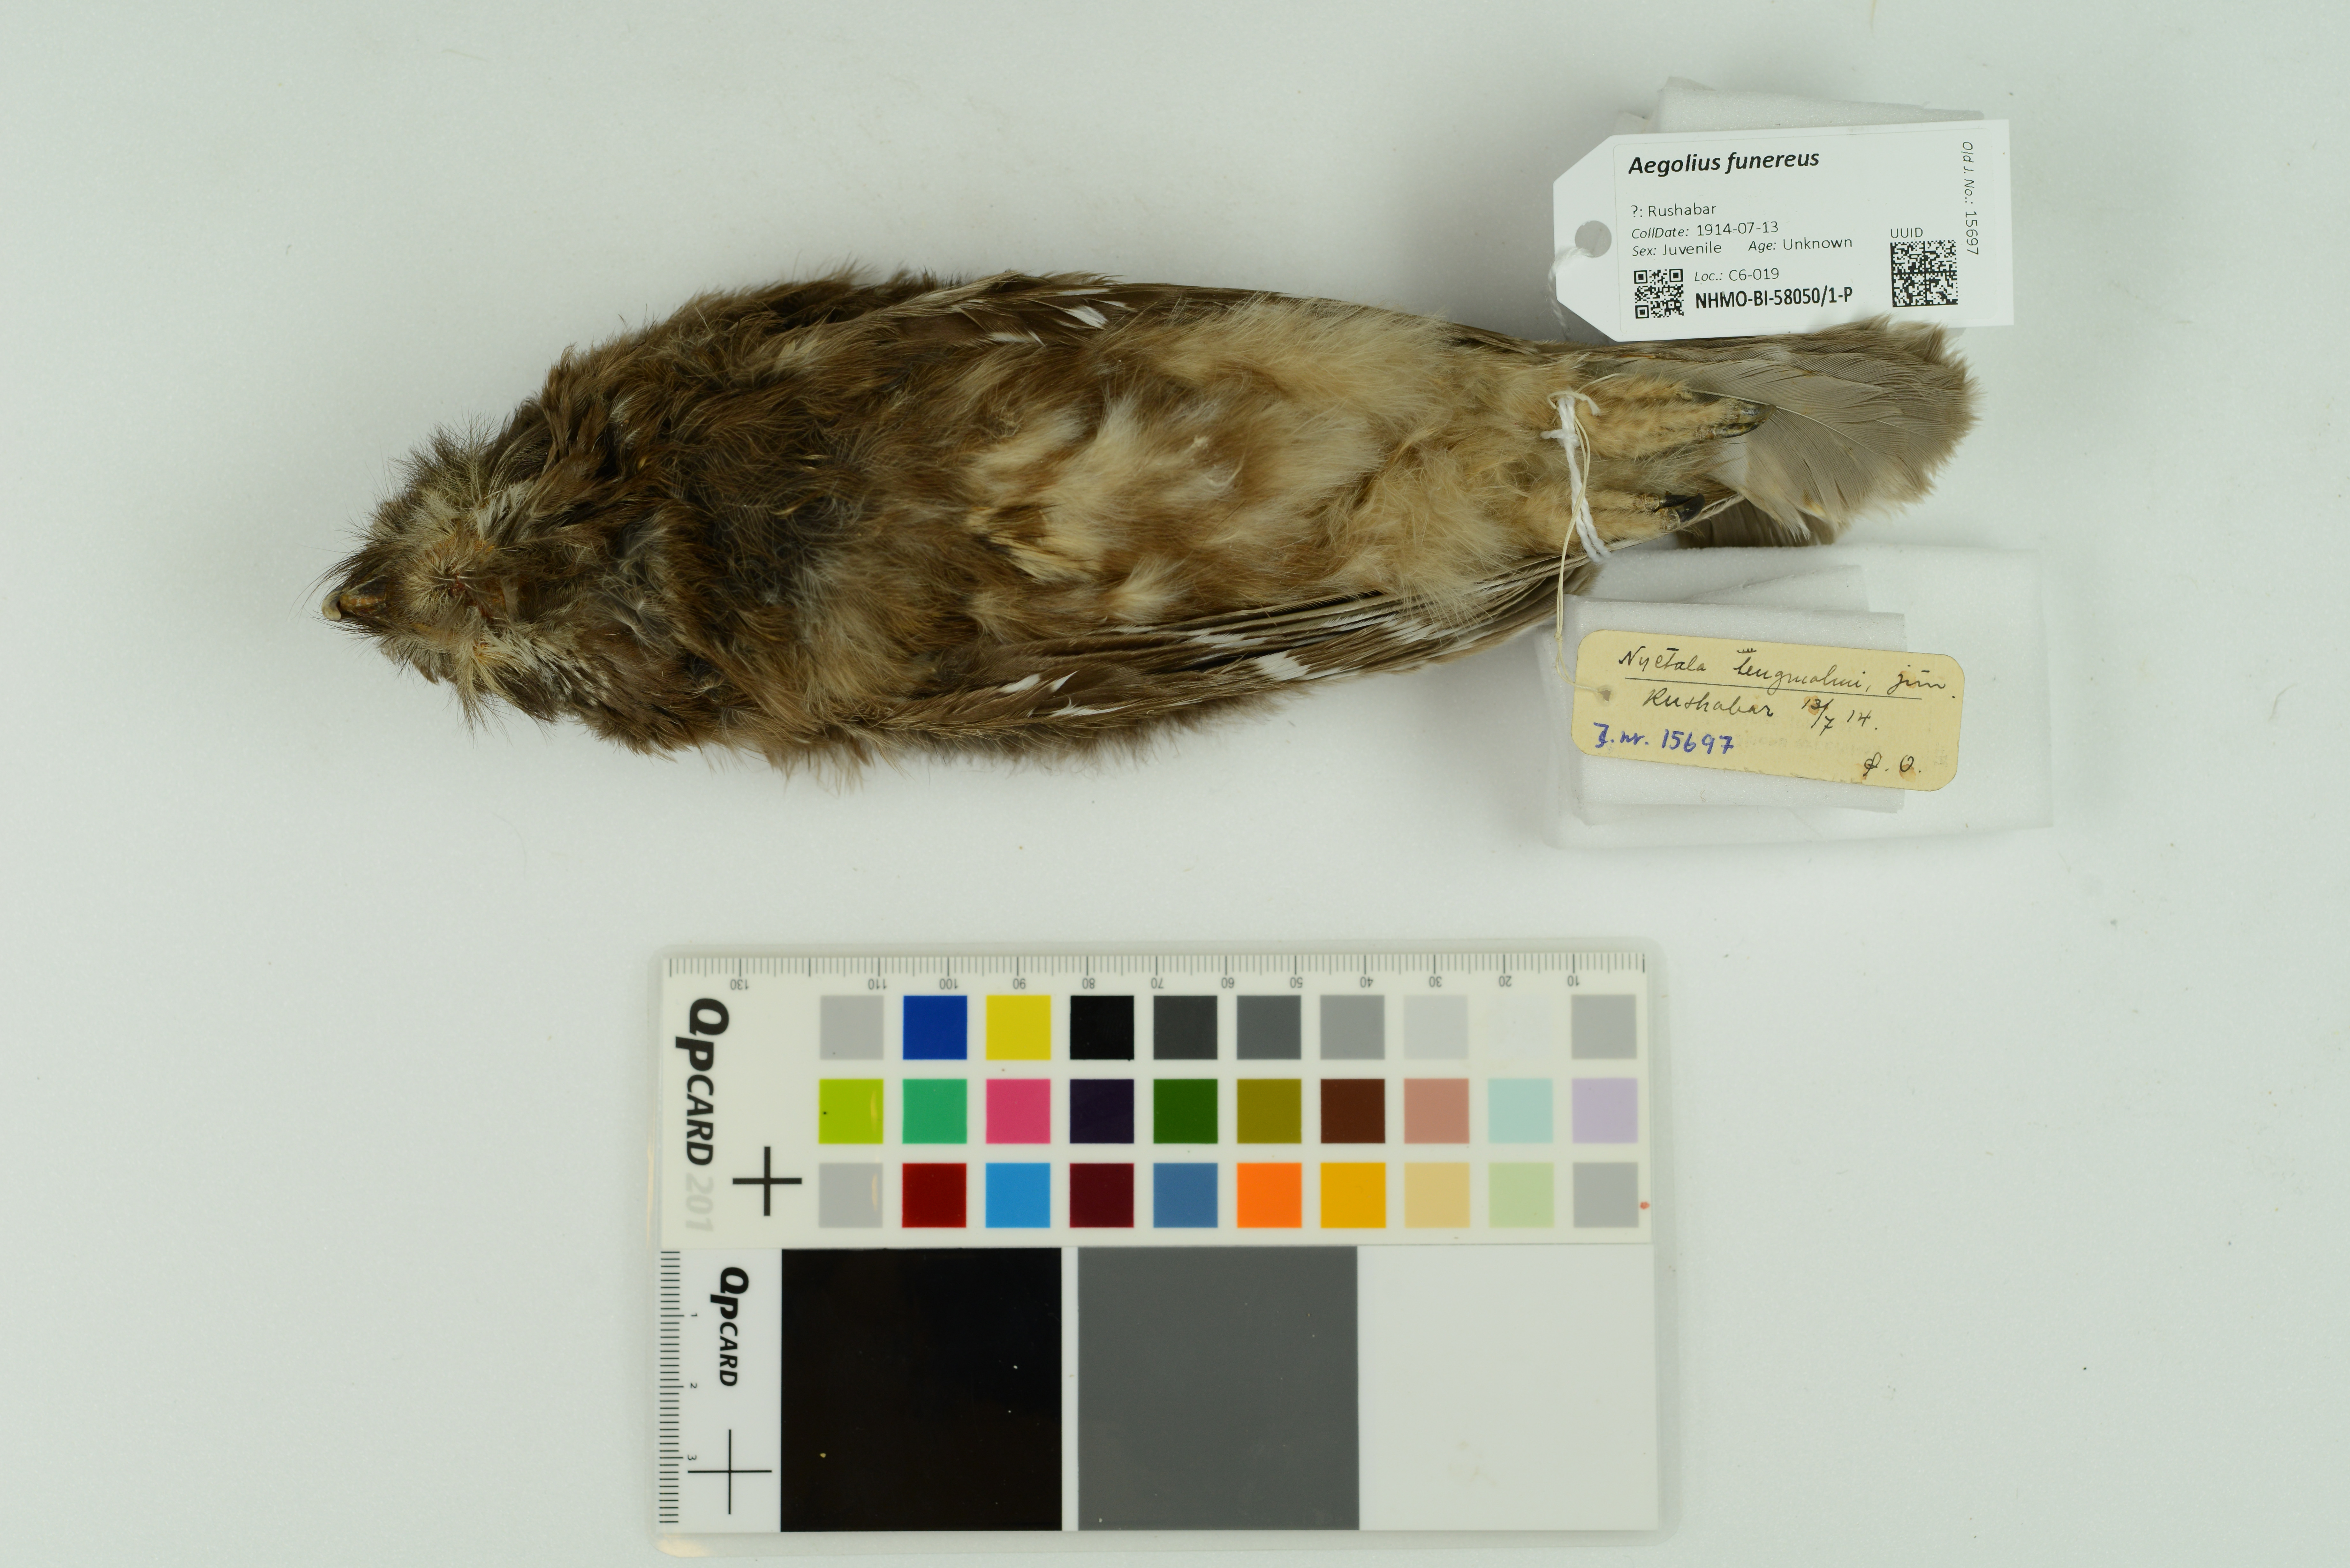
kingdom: Animalia
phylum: Chordata
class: Aves
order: Strigiformes
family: Strigidae
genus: Aegolius
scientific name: Aegolius funereus
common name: Boreal owl
